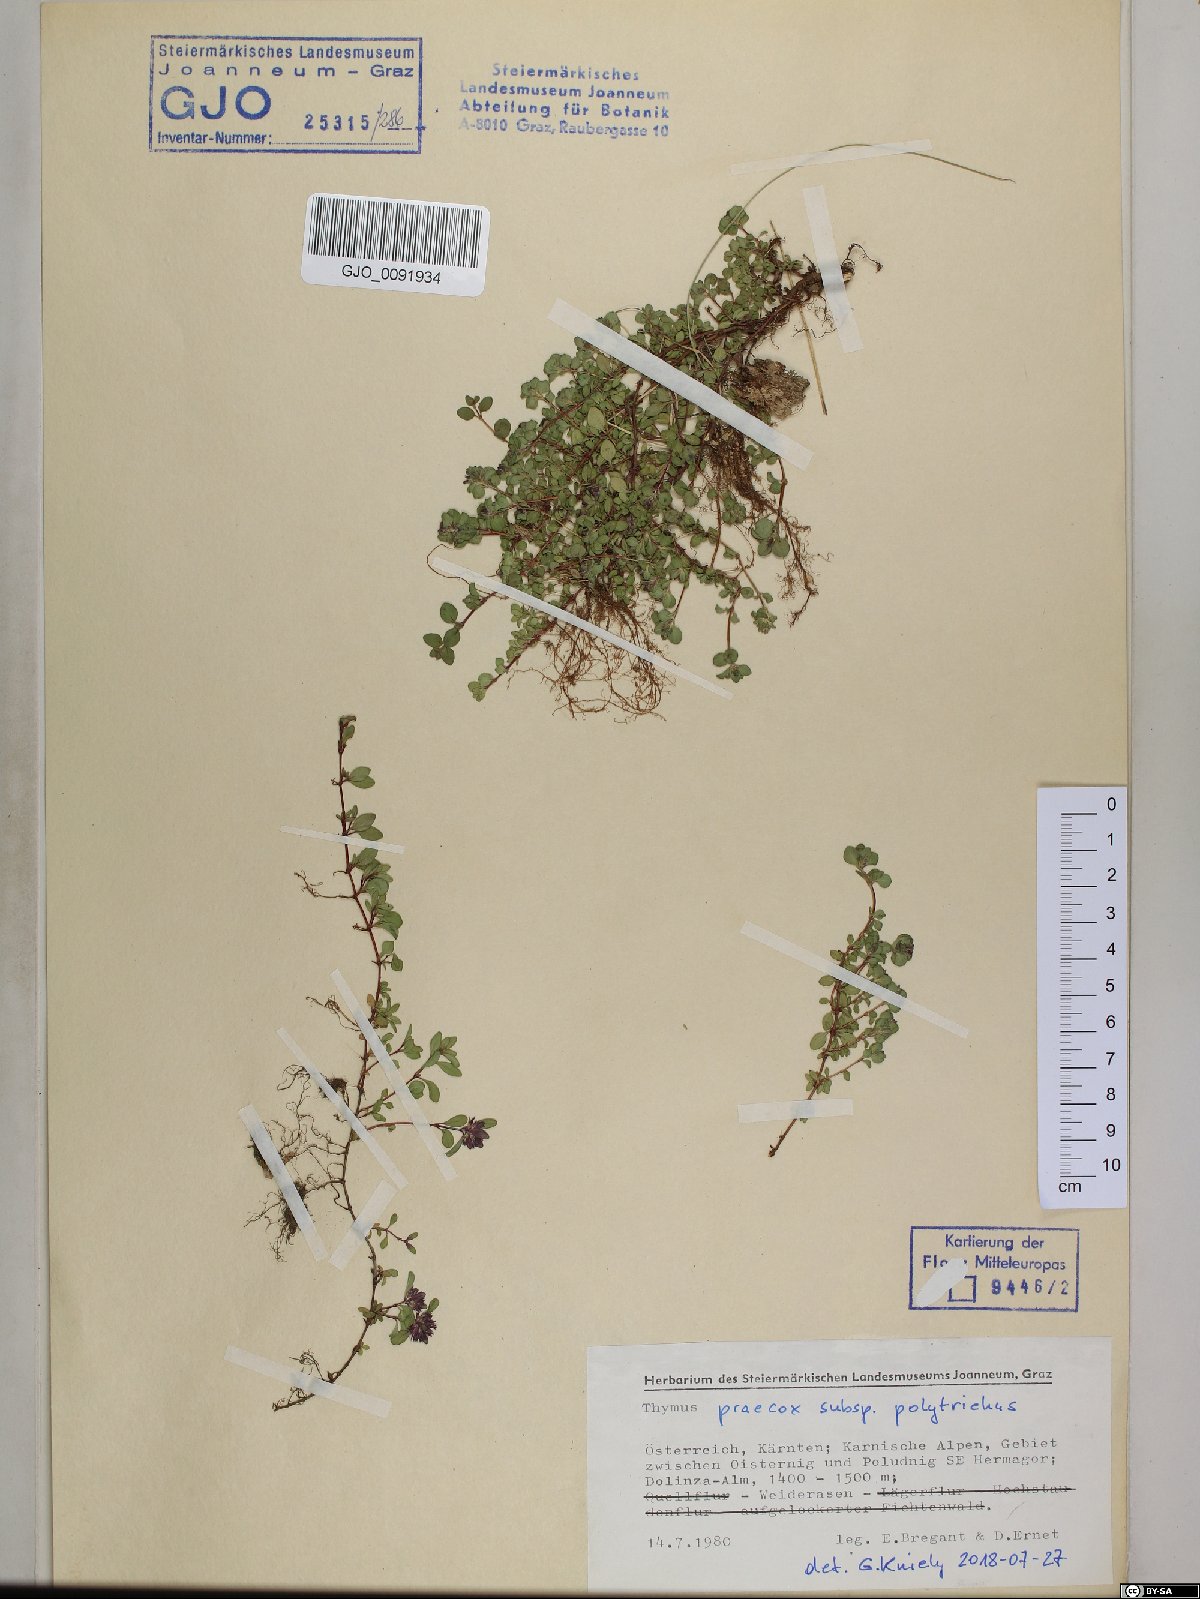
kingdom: Plantae
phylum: Tracheophyta
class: Magnoliopsida
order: Lamiales
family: Lamiaceae
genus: Thymus
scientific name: Thymus praecox
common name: Wild thyme
